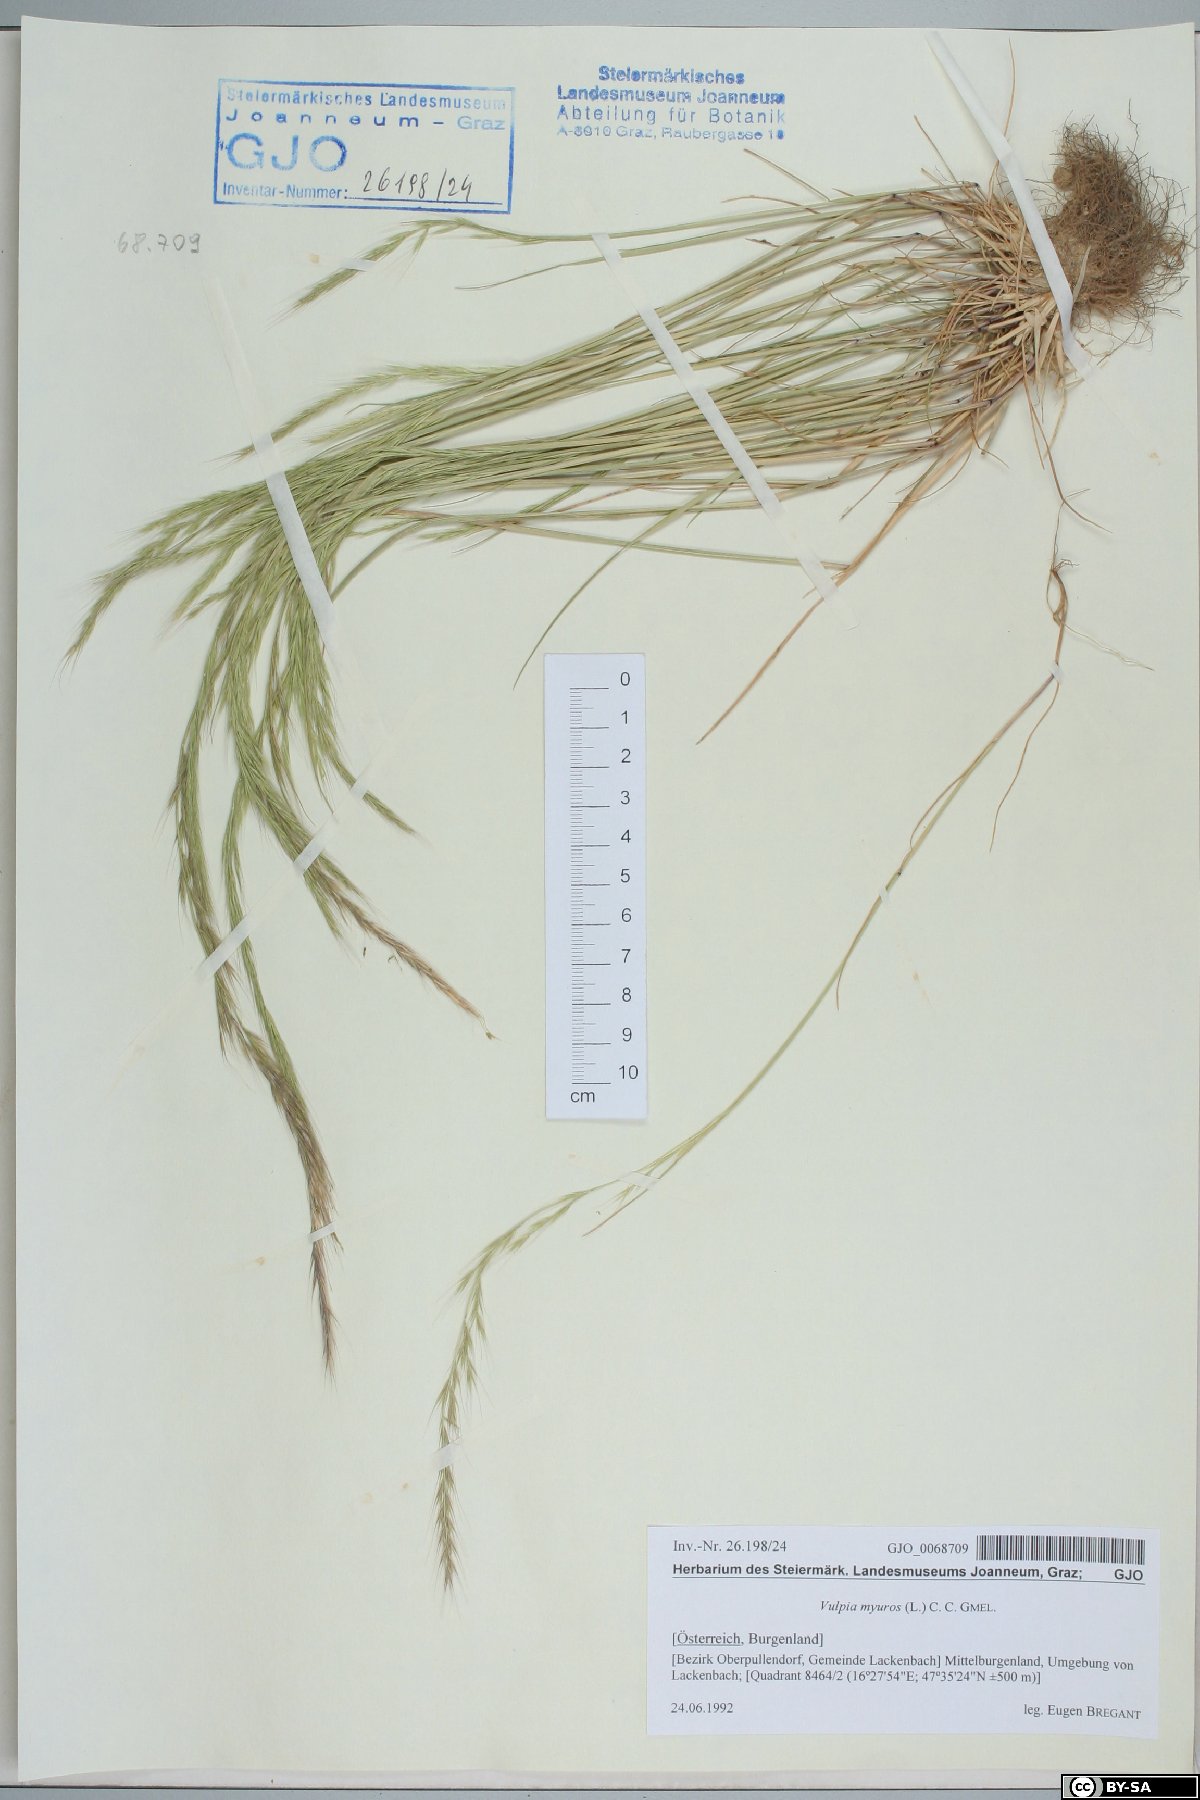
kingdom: Plantae
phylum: Tracheophyta
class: Liliopsida
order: Poales
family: Poaceae
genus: Festuca
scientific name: Festuca myuros
